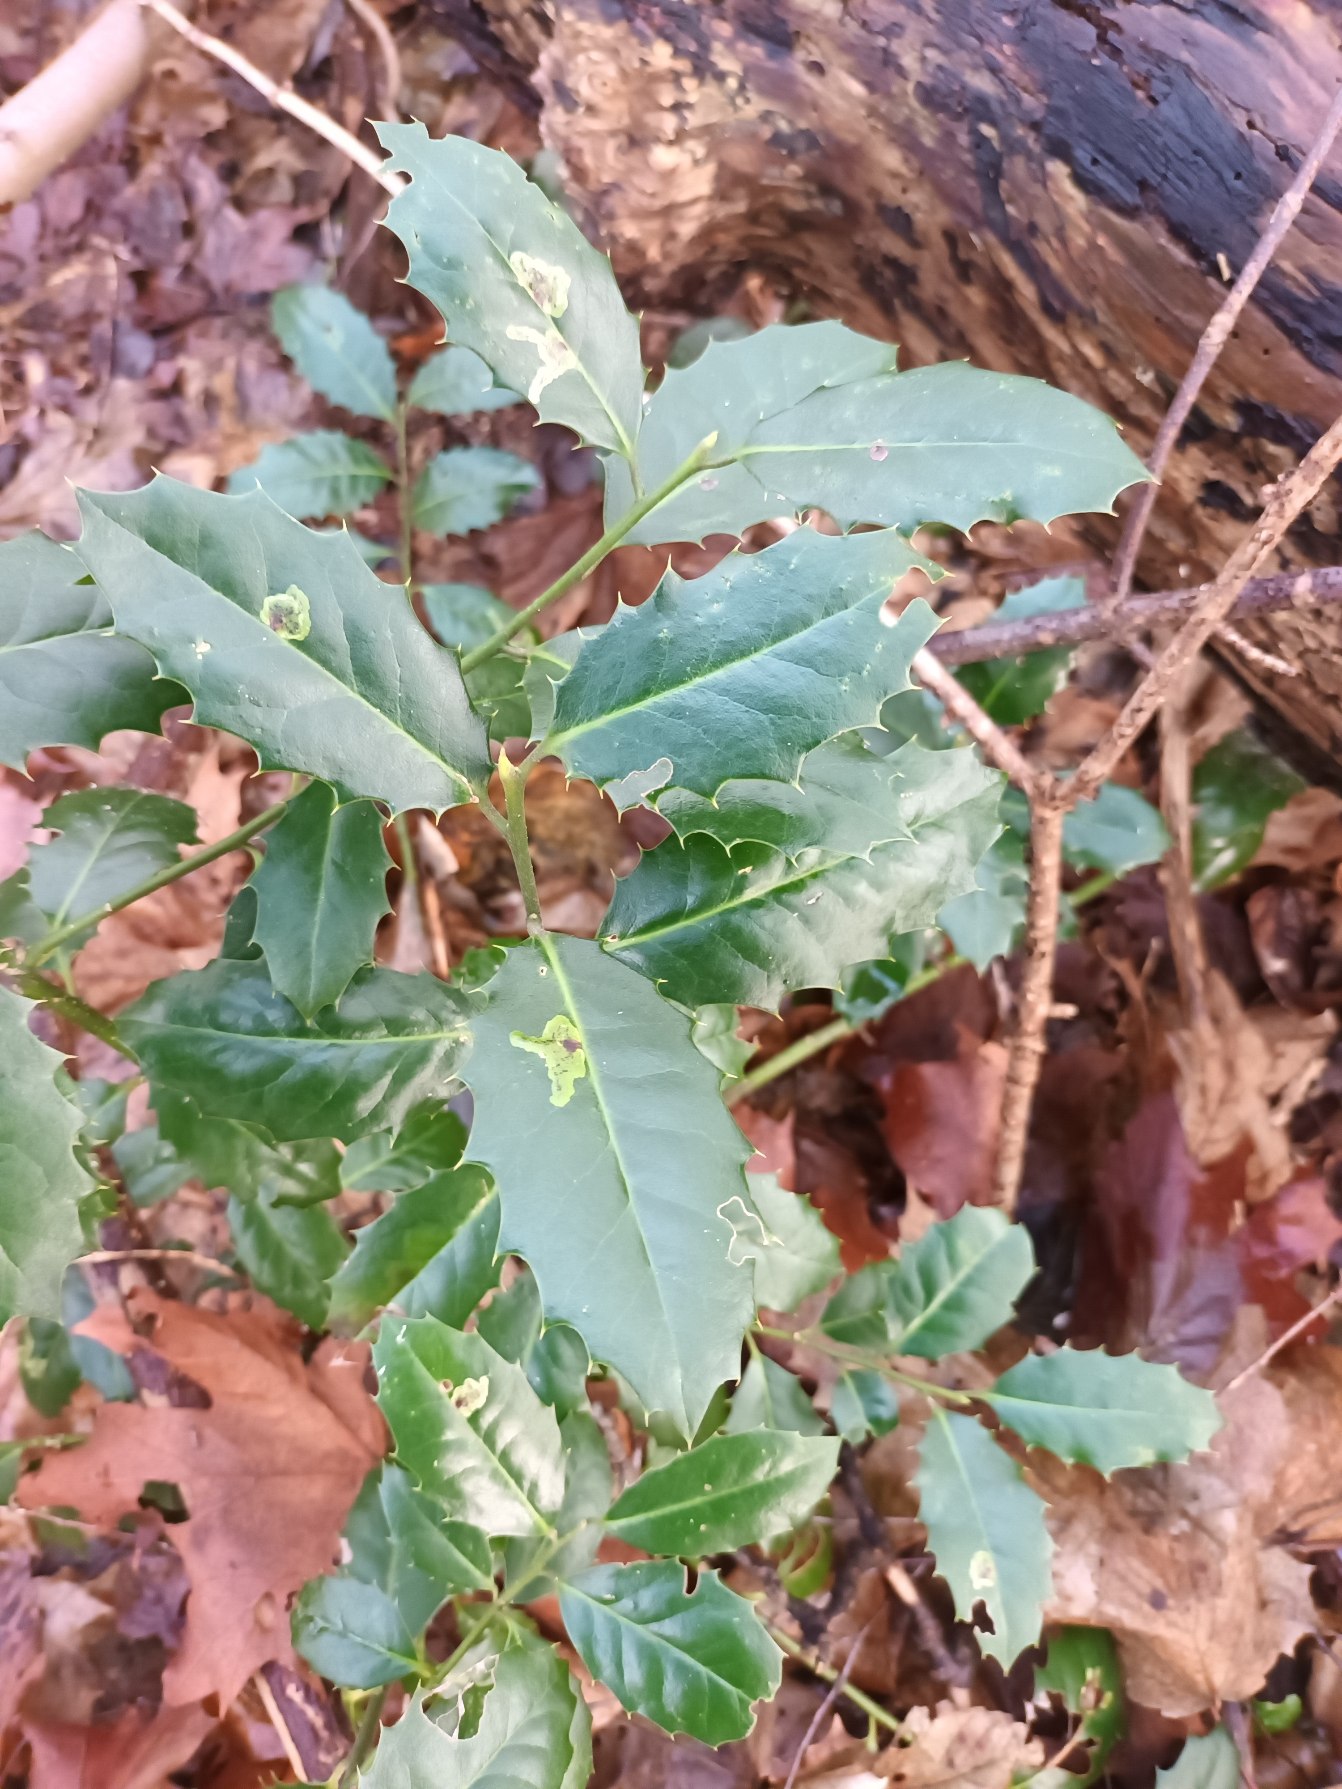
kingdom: Plantae
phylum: Tracheophyta
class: Magnoliopsida
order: Aquifoliales
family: Aquifoliaceae
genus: Ilex
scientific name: Ilex altaclerensis
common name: Storbladet kristtorn
